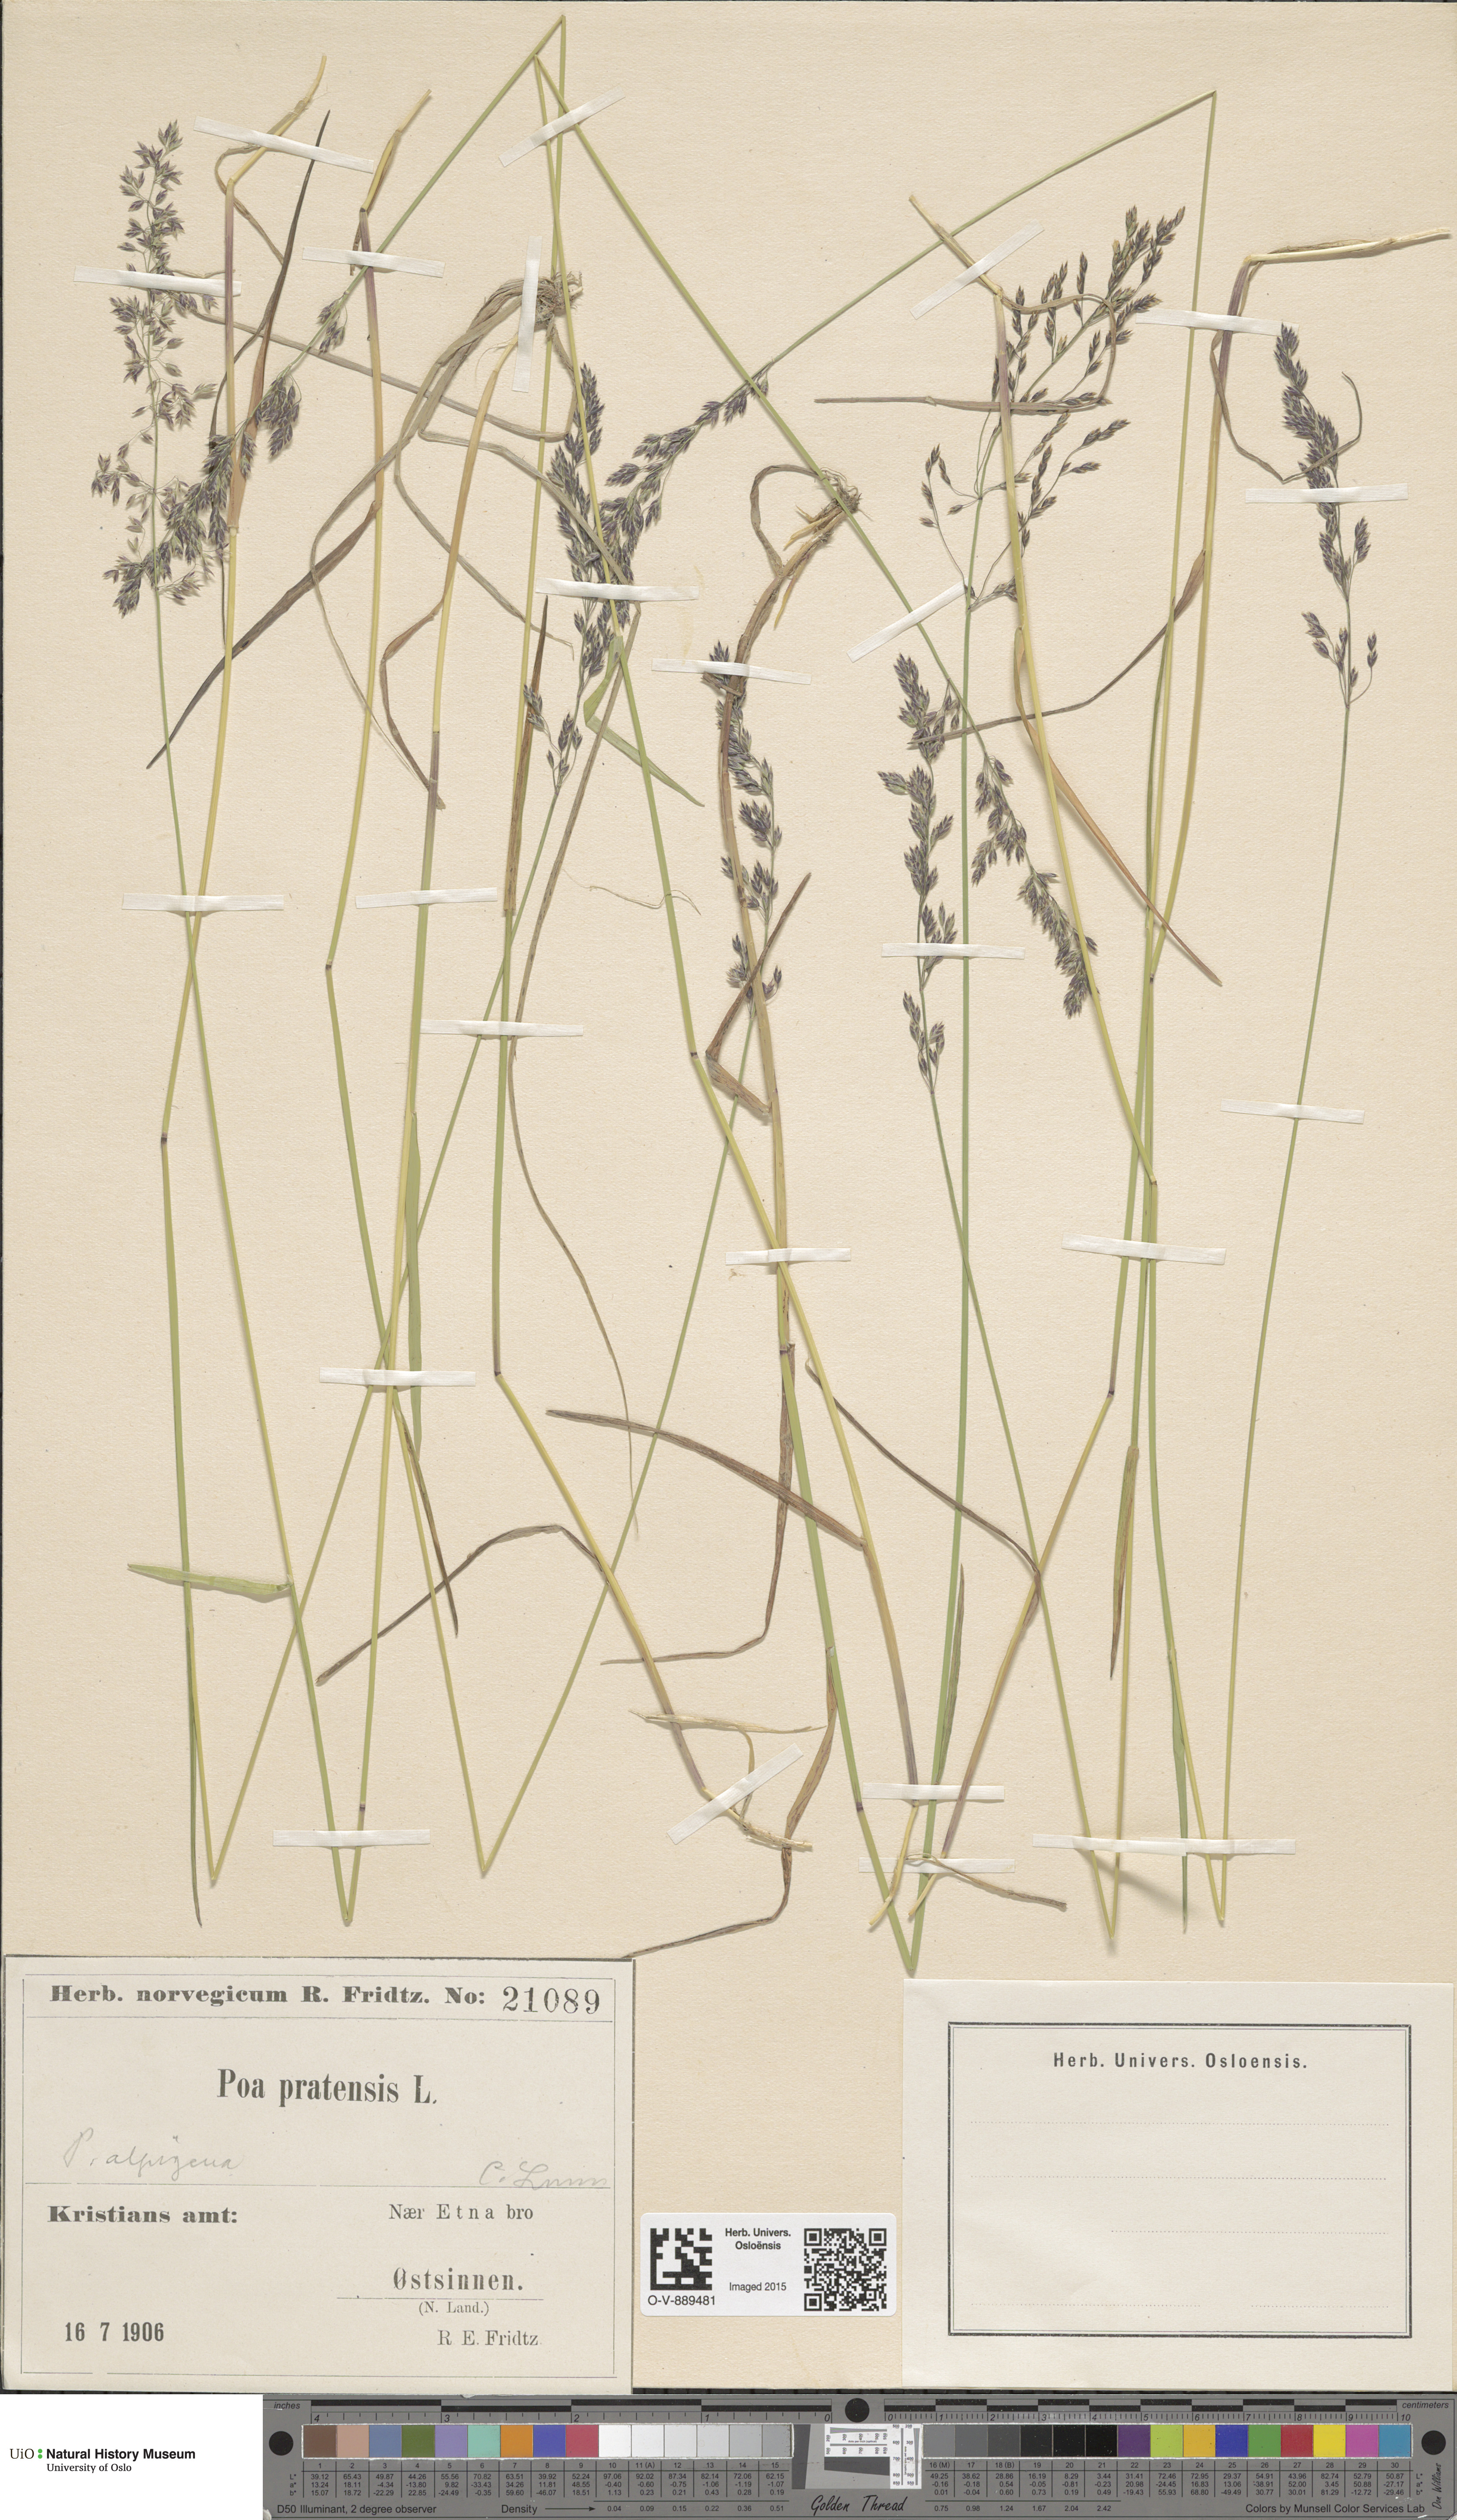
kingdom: Plantae
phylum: Tracheophyta
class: Liliopsida
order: Poales
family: Poaceae
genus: Poa
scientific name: Poa alpigena
